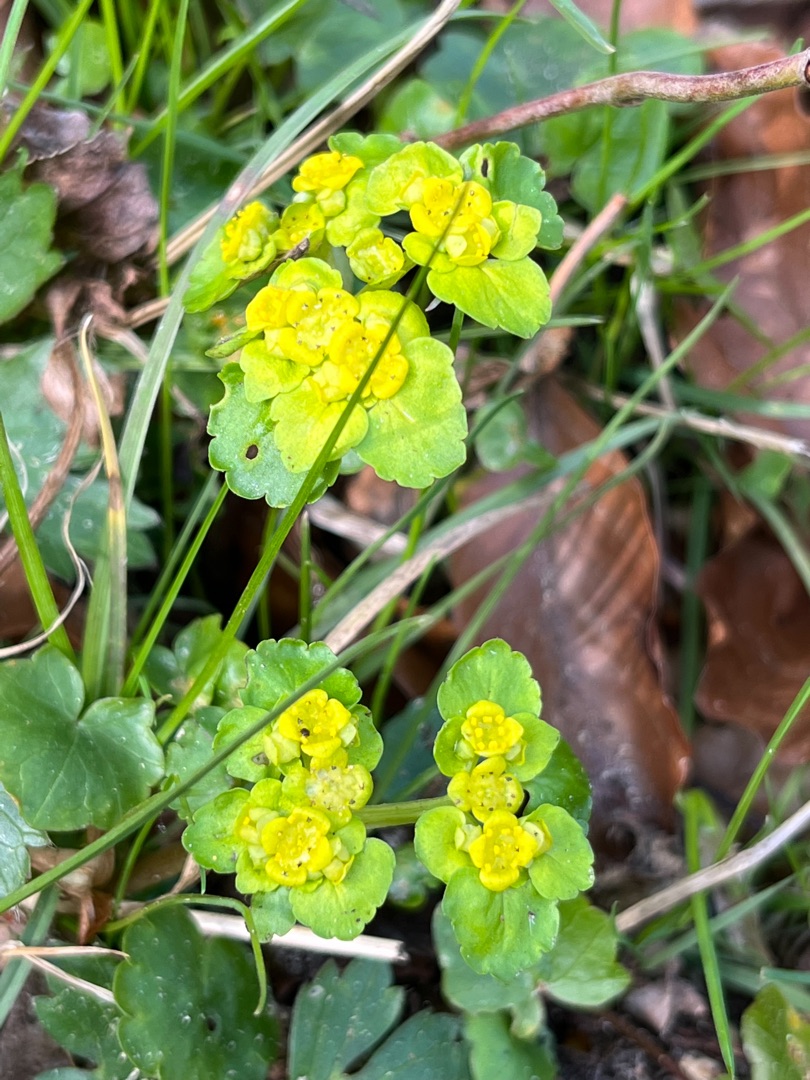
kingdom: Plantae
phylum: Tracheophyta
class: Magnoliopsida
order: Saxifragales
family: Saxifragaceae
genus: Chrysosplenium
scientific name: Chrysosplenium alternifolium
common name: Almindelig milturt
